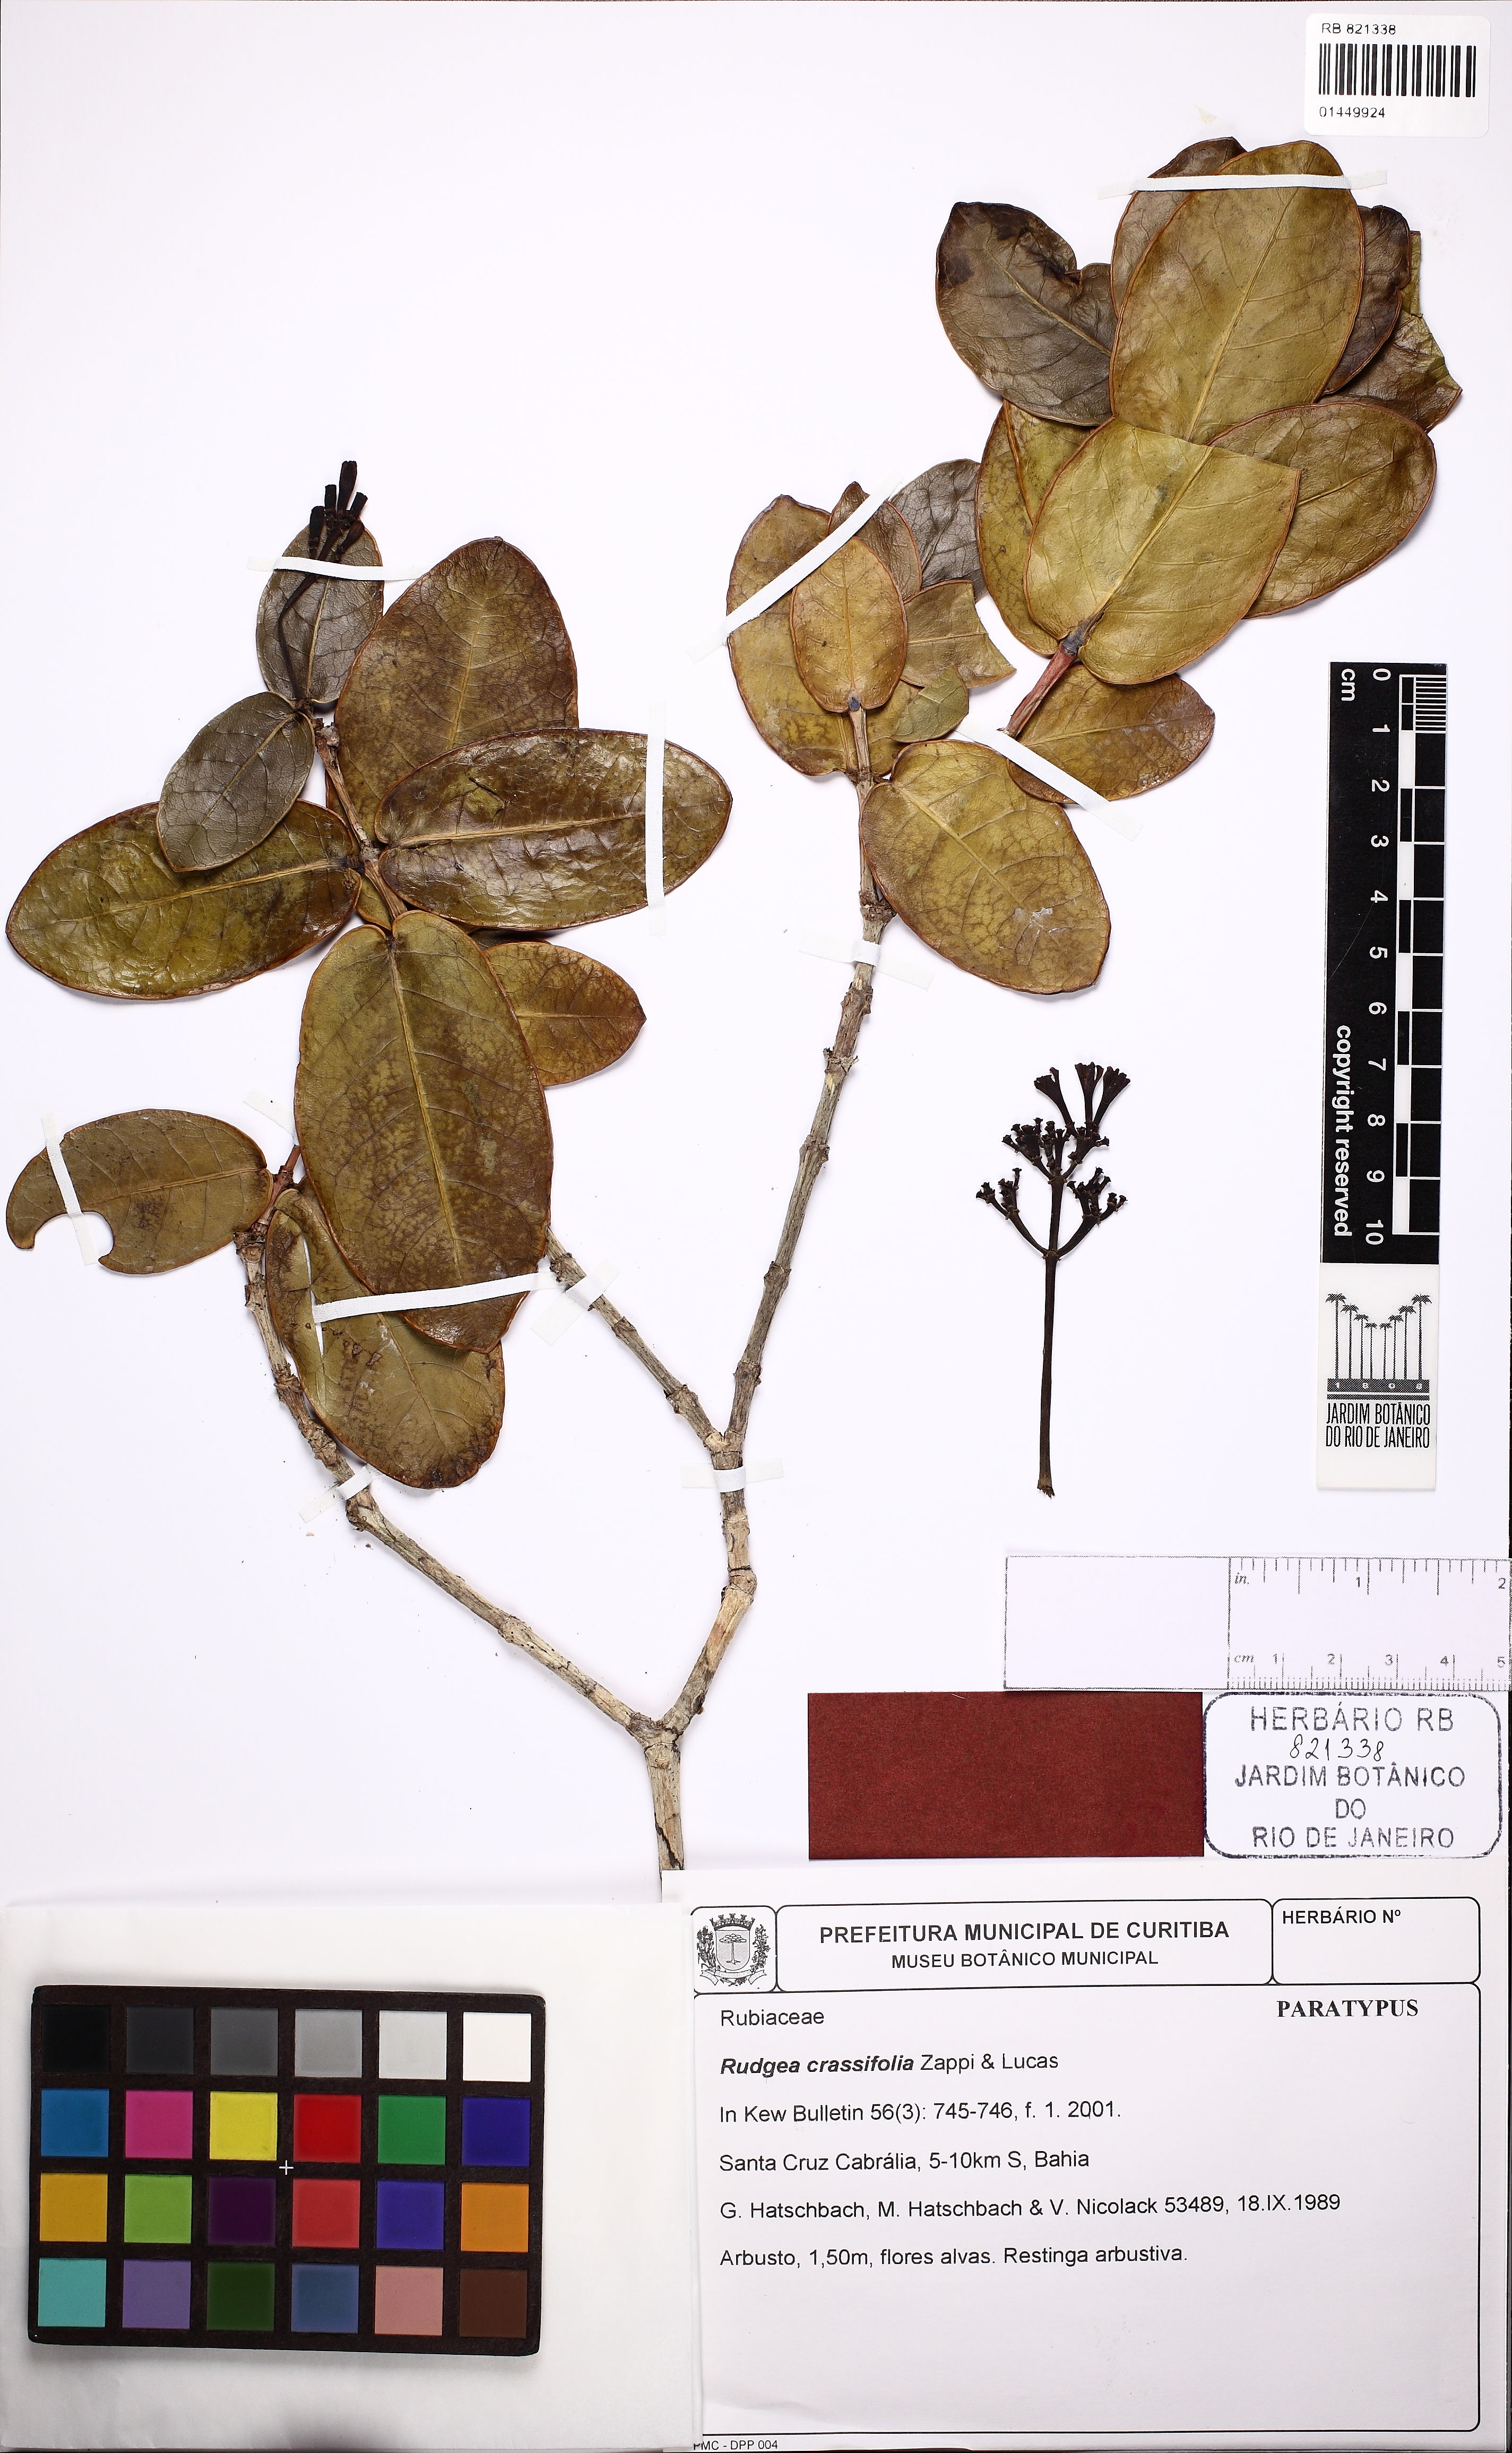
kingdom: Plantae
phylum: Tracheophyta
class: Magnoliopsida
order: Gentianales
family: Rubiaceae
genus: Rudgea
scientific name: Rudgea crassifolia
